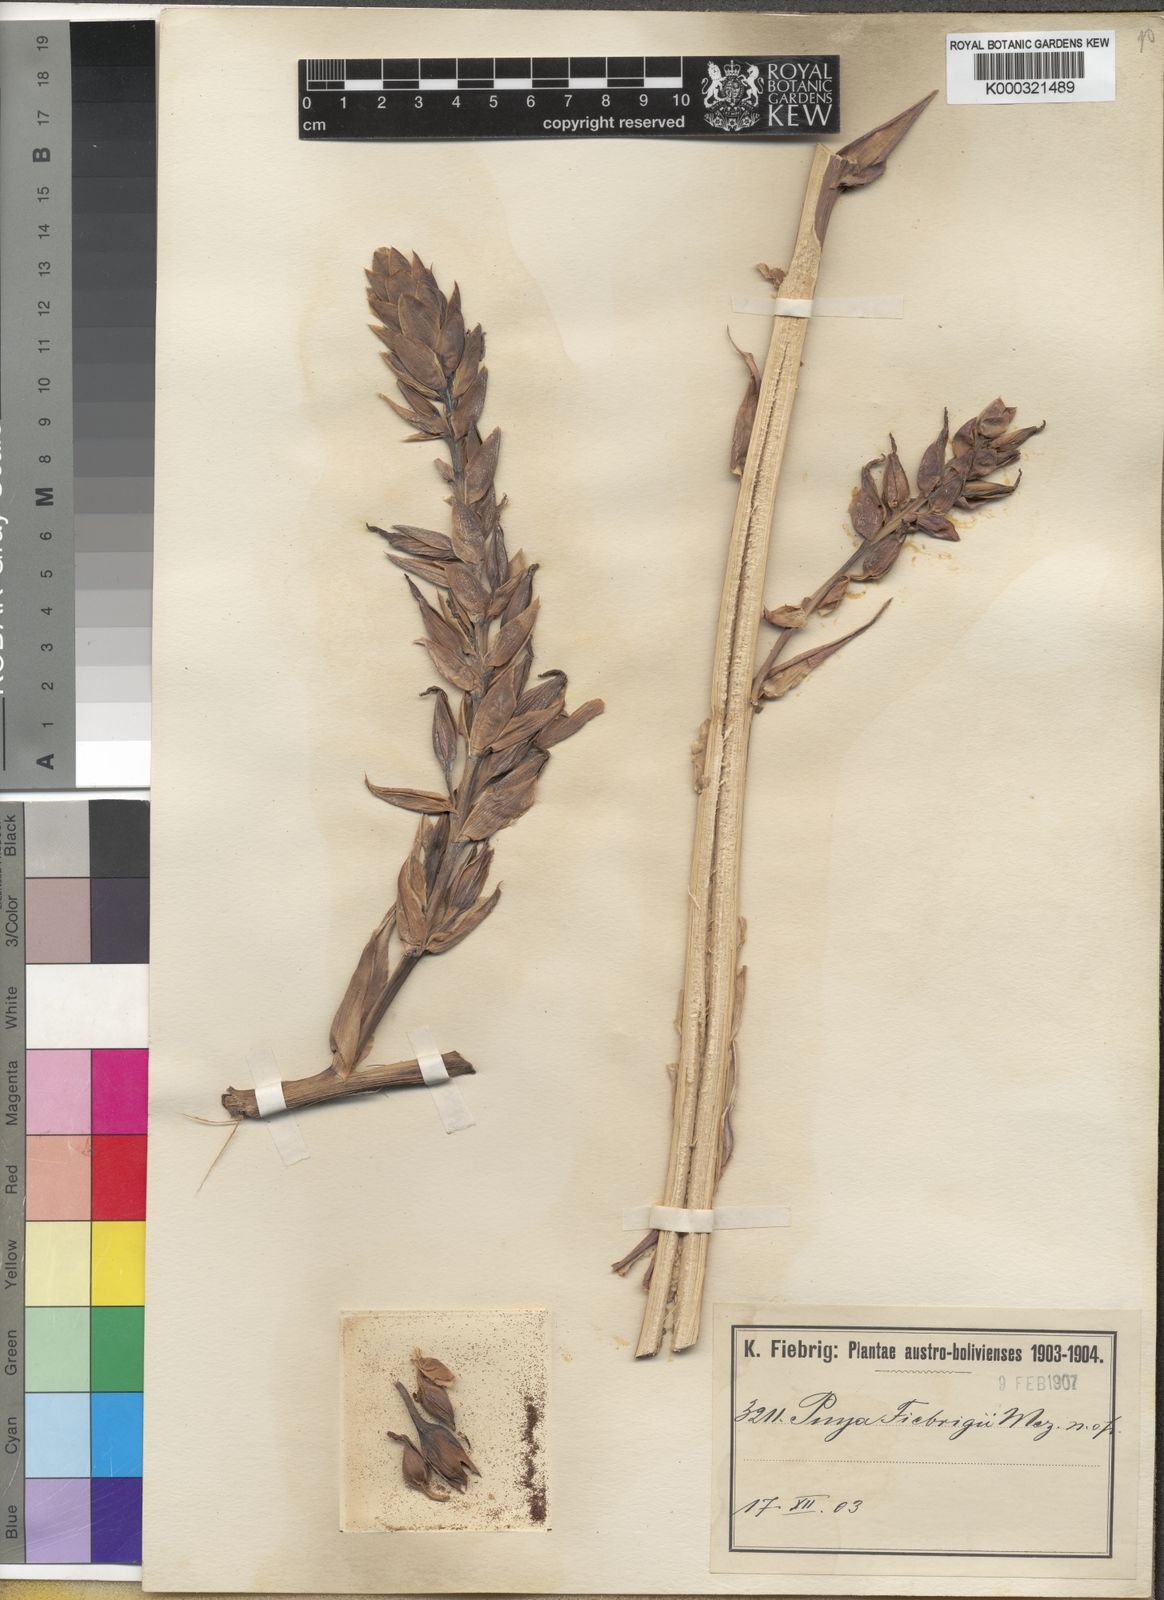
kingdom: Plantae
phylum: Tracheophyta
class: Liliopsida
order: Poales
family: Bromeliaceae
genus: Puya
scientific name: Puya fiebrigii
